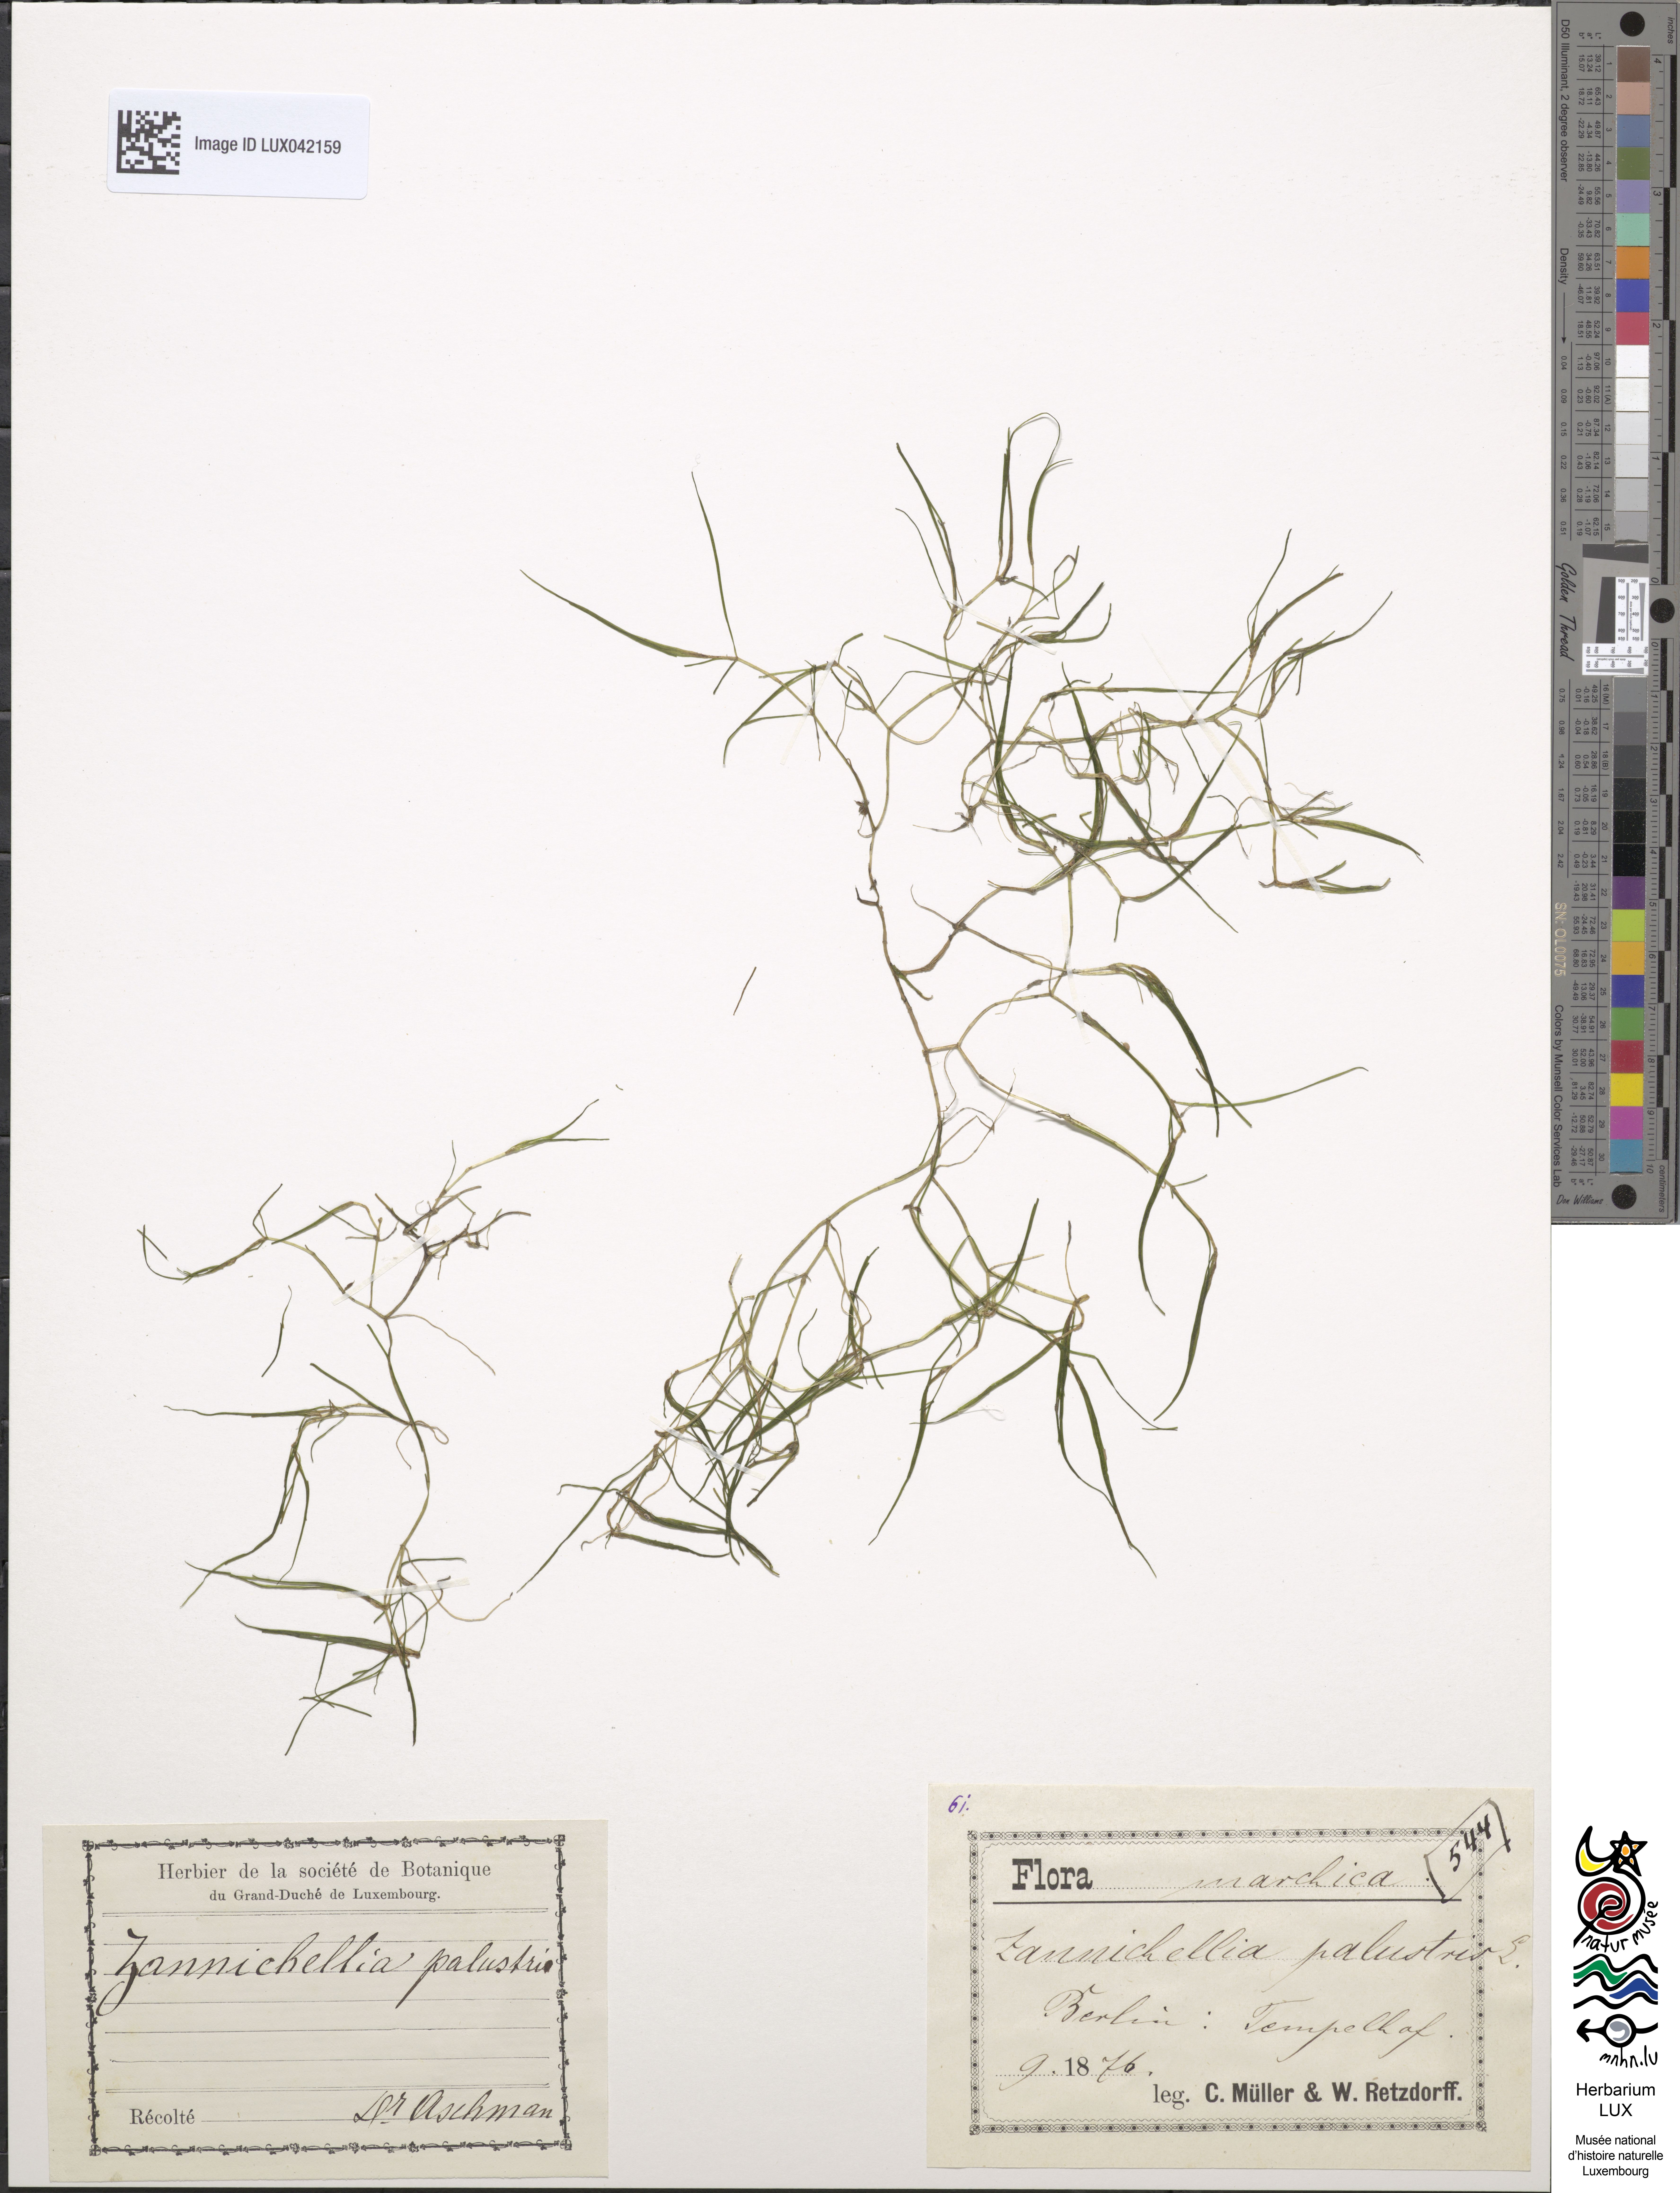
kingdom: Plantae
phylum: Tracheophyta
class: Liliopsida
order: Alismatales
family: Potamogetonaceae
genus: Zannichellia
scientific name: Zannichellia palustris
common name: Horned pondweed
